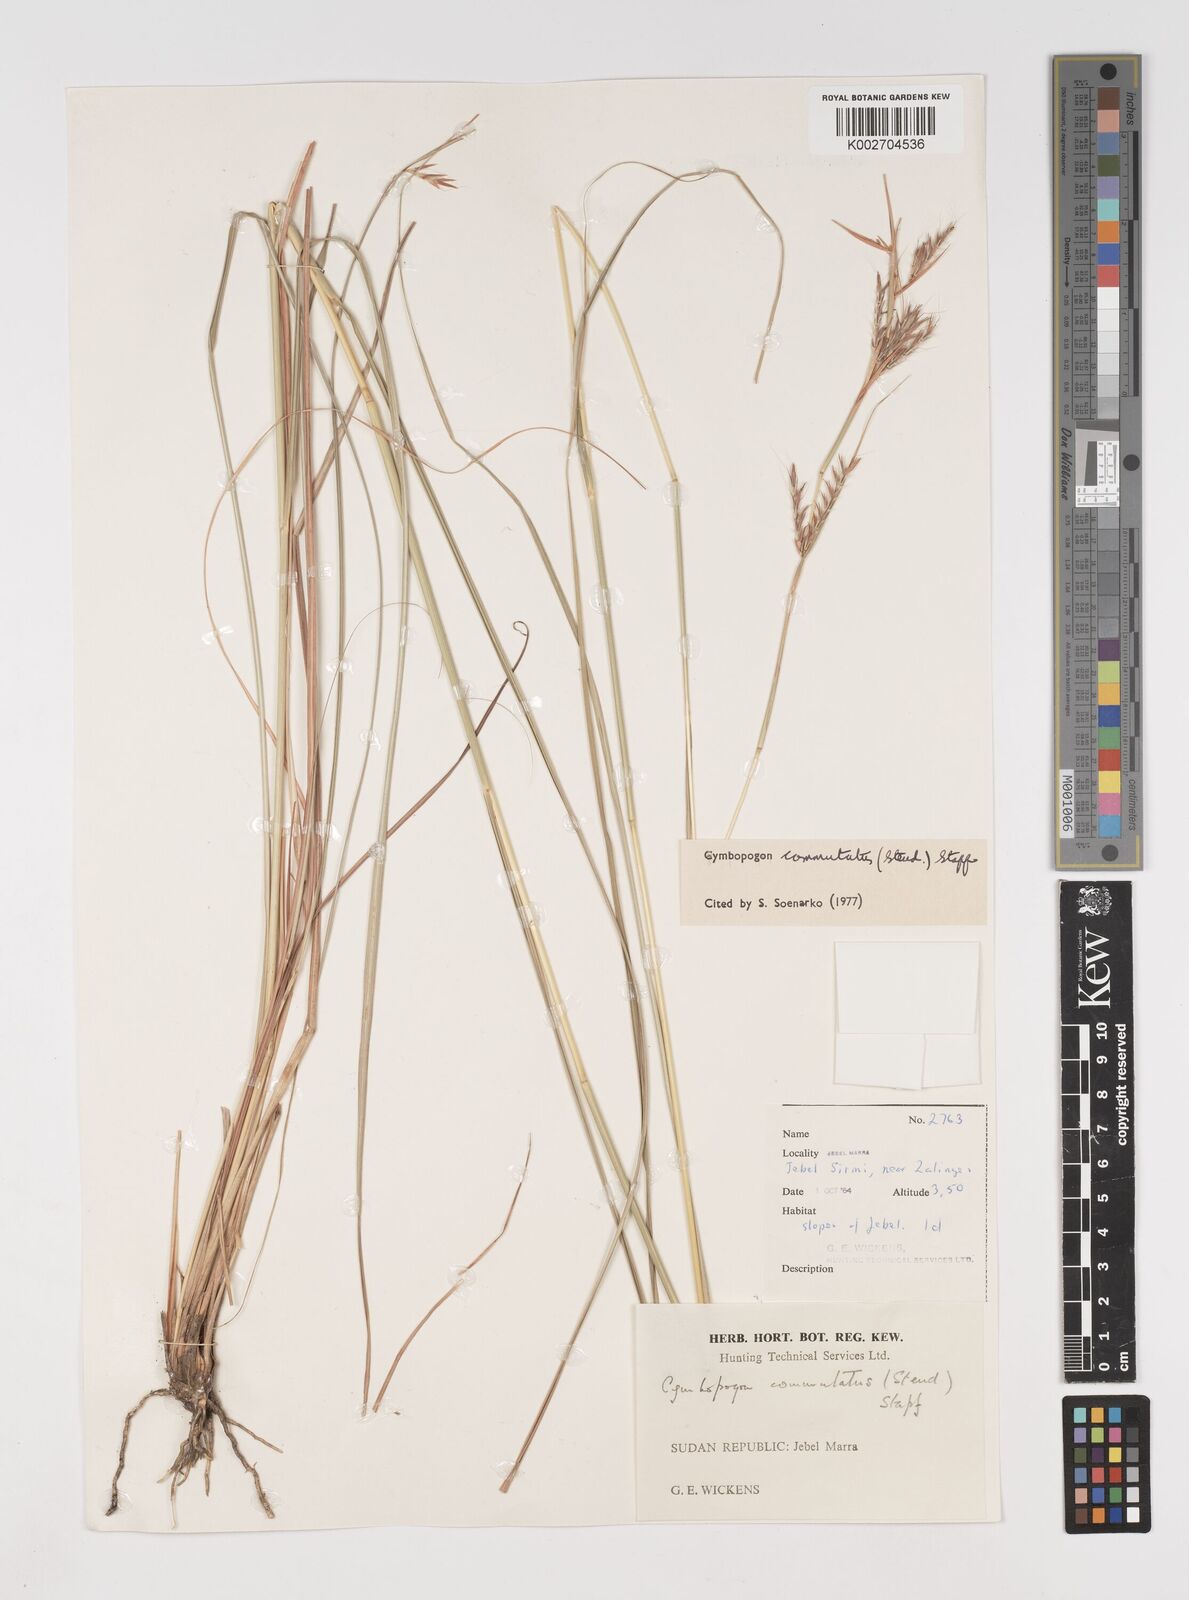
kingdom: Plantae
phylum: Tracheophyta
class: Liliopsida
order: Poales
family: Poaceae
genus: Cymbopogon
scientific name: Cymbopogon commutatus
